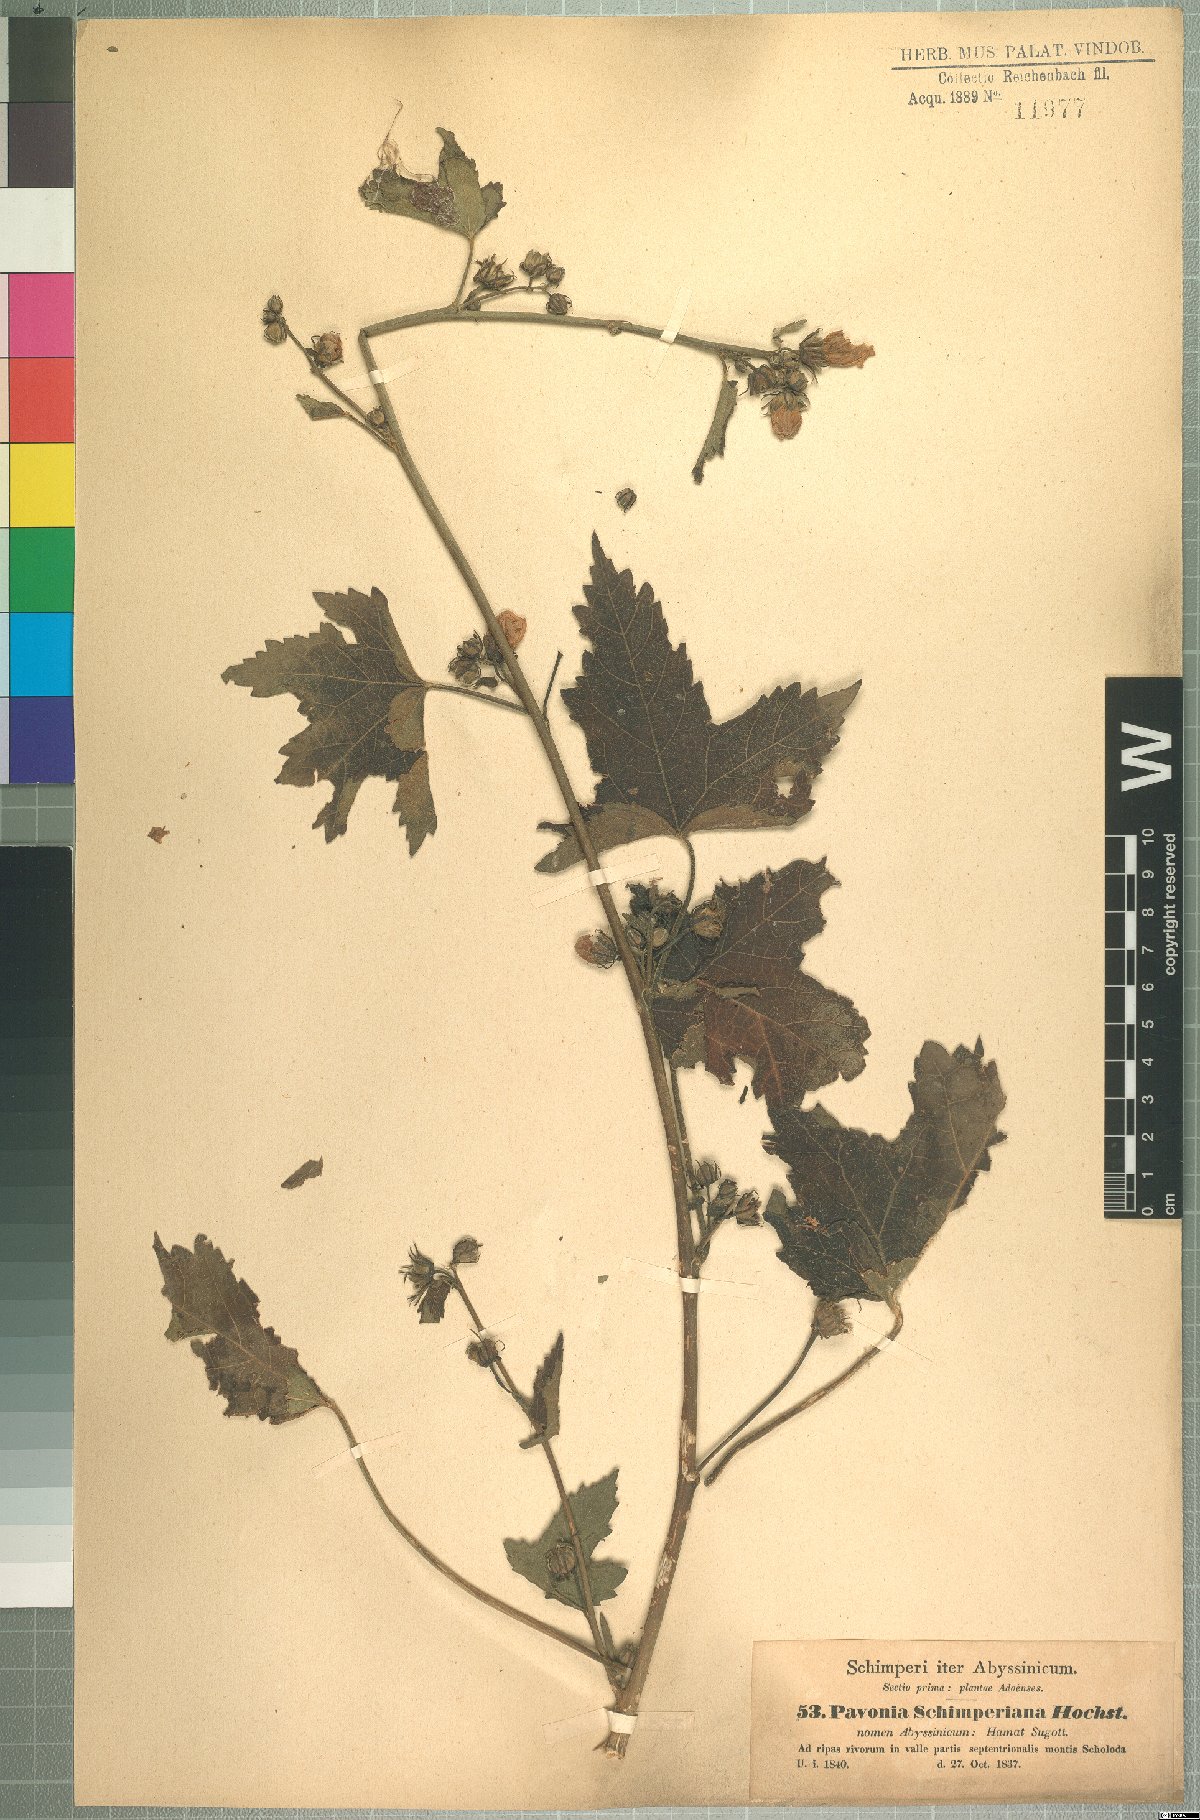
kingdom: Plantae
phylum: Tracheophyta
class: Magnoliopsida
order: Malvales
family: Malvaceae
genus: Pavonia
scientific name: Pavonia schimperiana
